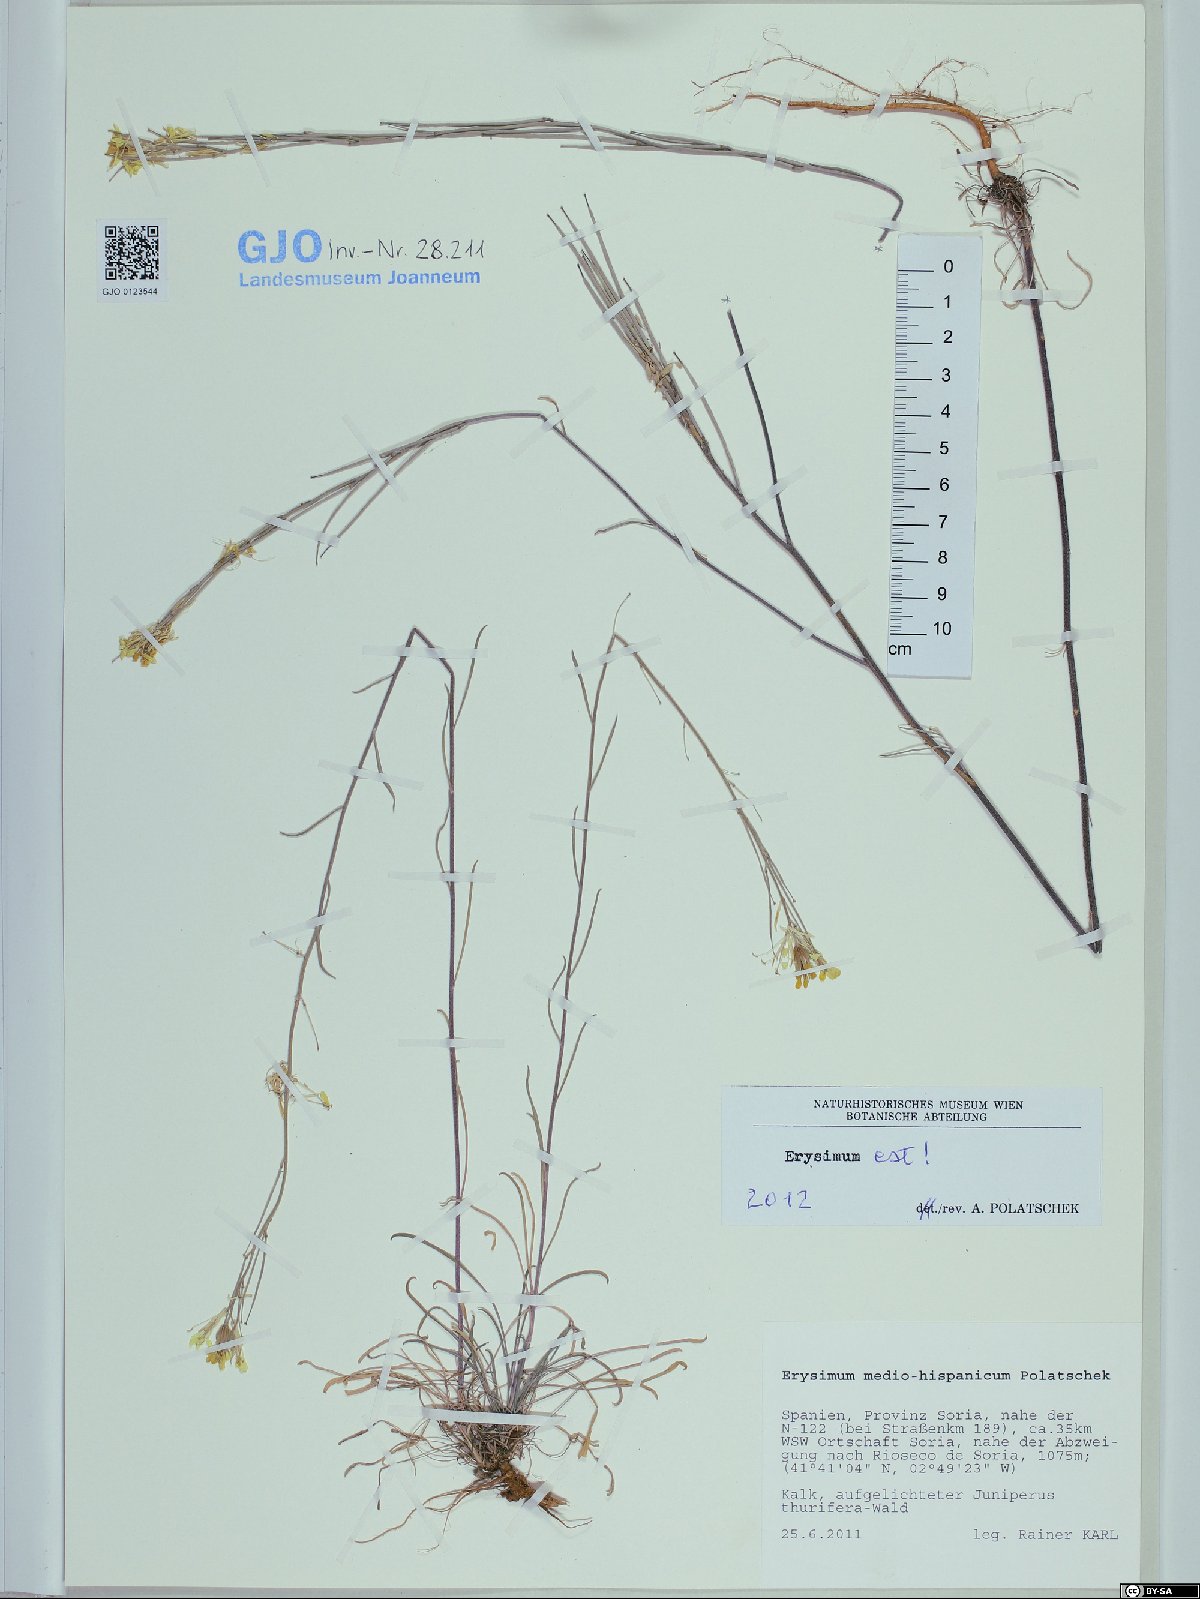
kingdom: Plantae
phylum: Tracheophyta
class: Magnoliopsida
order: Brassicales
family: Brassicaceae
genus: Erysimum
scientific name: Erysimum nevadense
